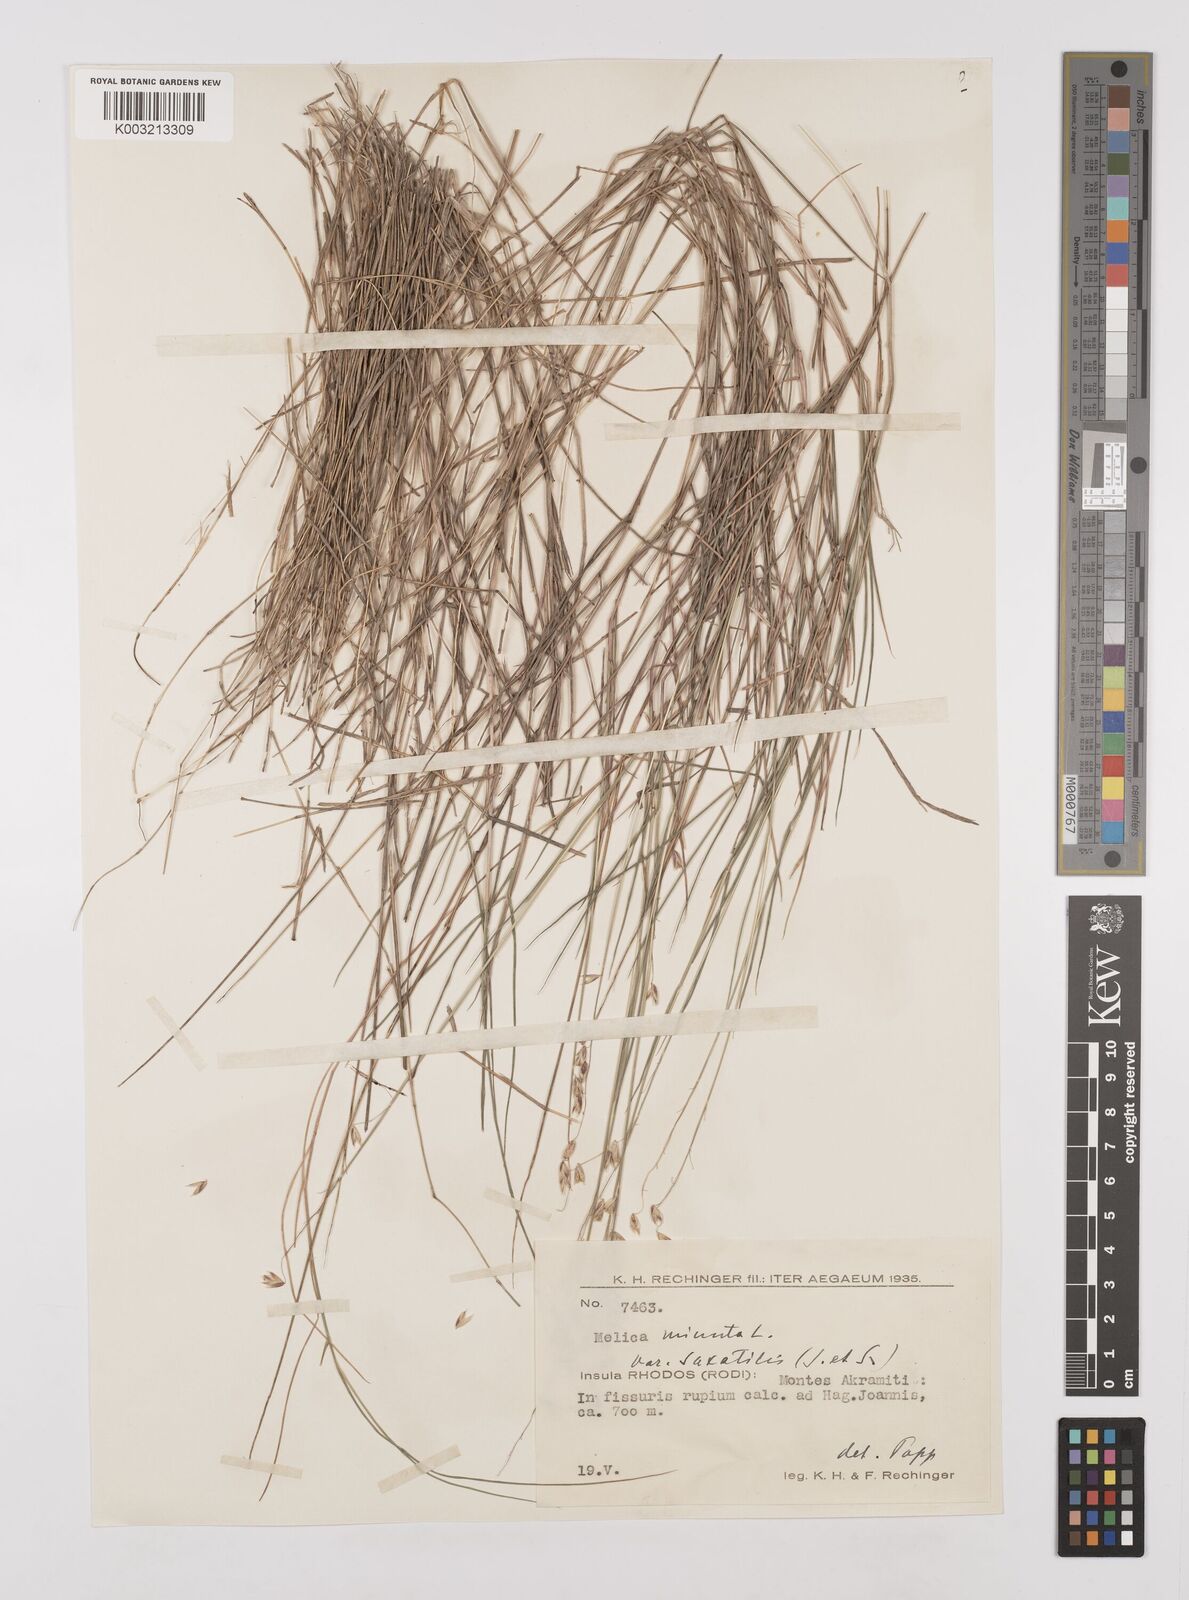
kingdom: Plantae
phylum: Tracheophyta
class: Liliopsida
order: Poales
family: Poaceae
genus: Melica
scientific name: Melica minuta
